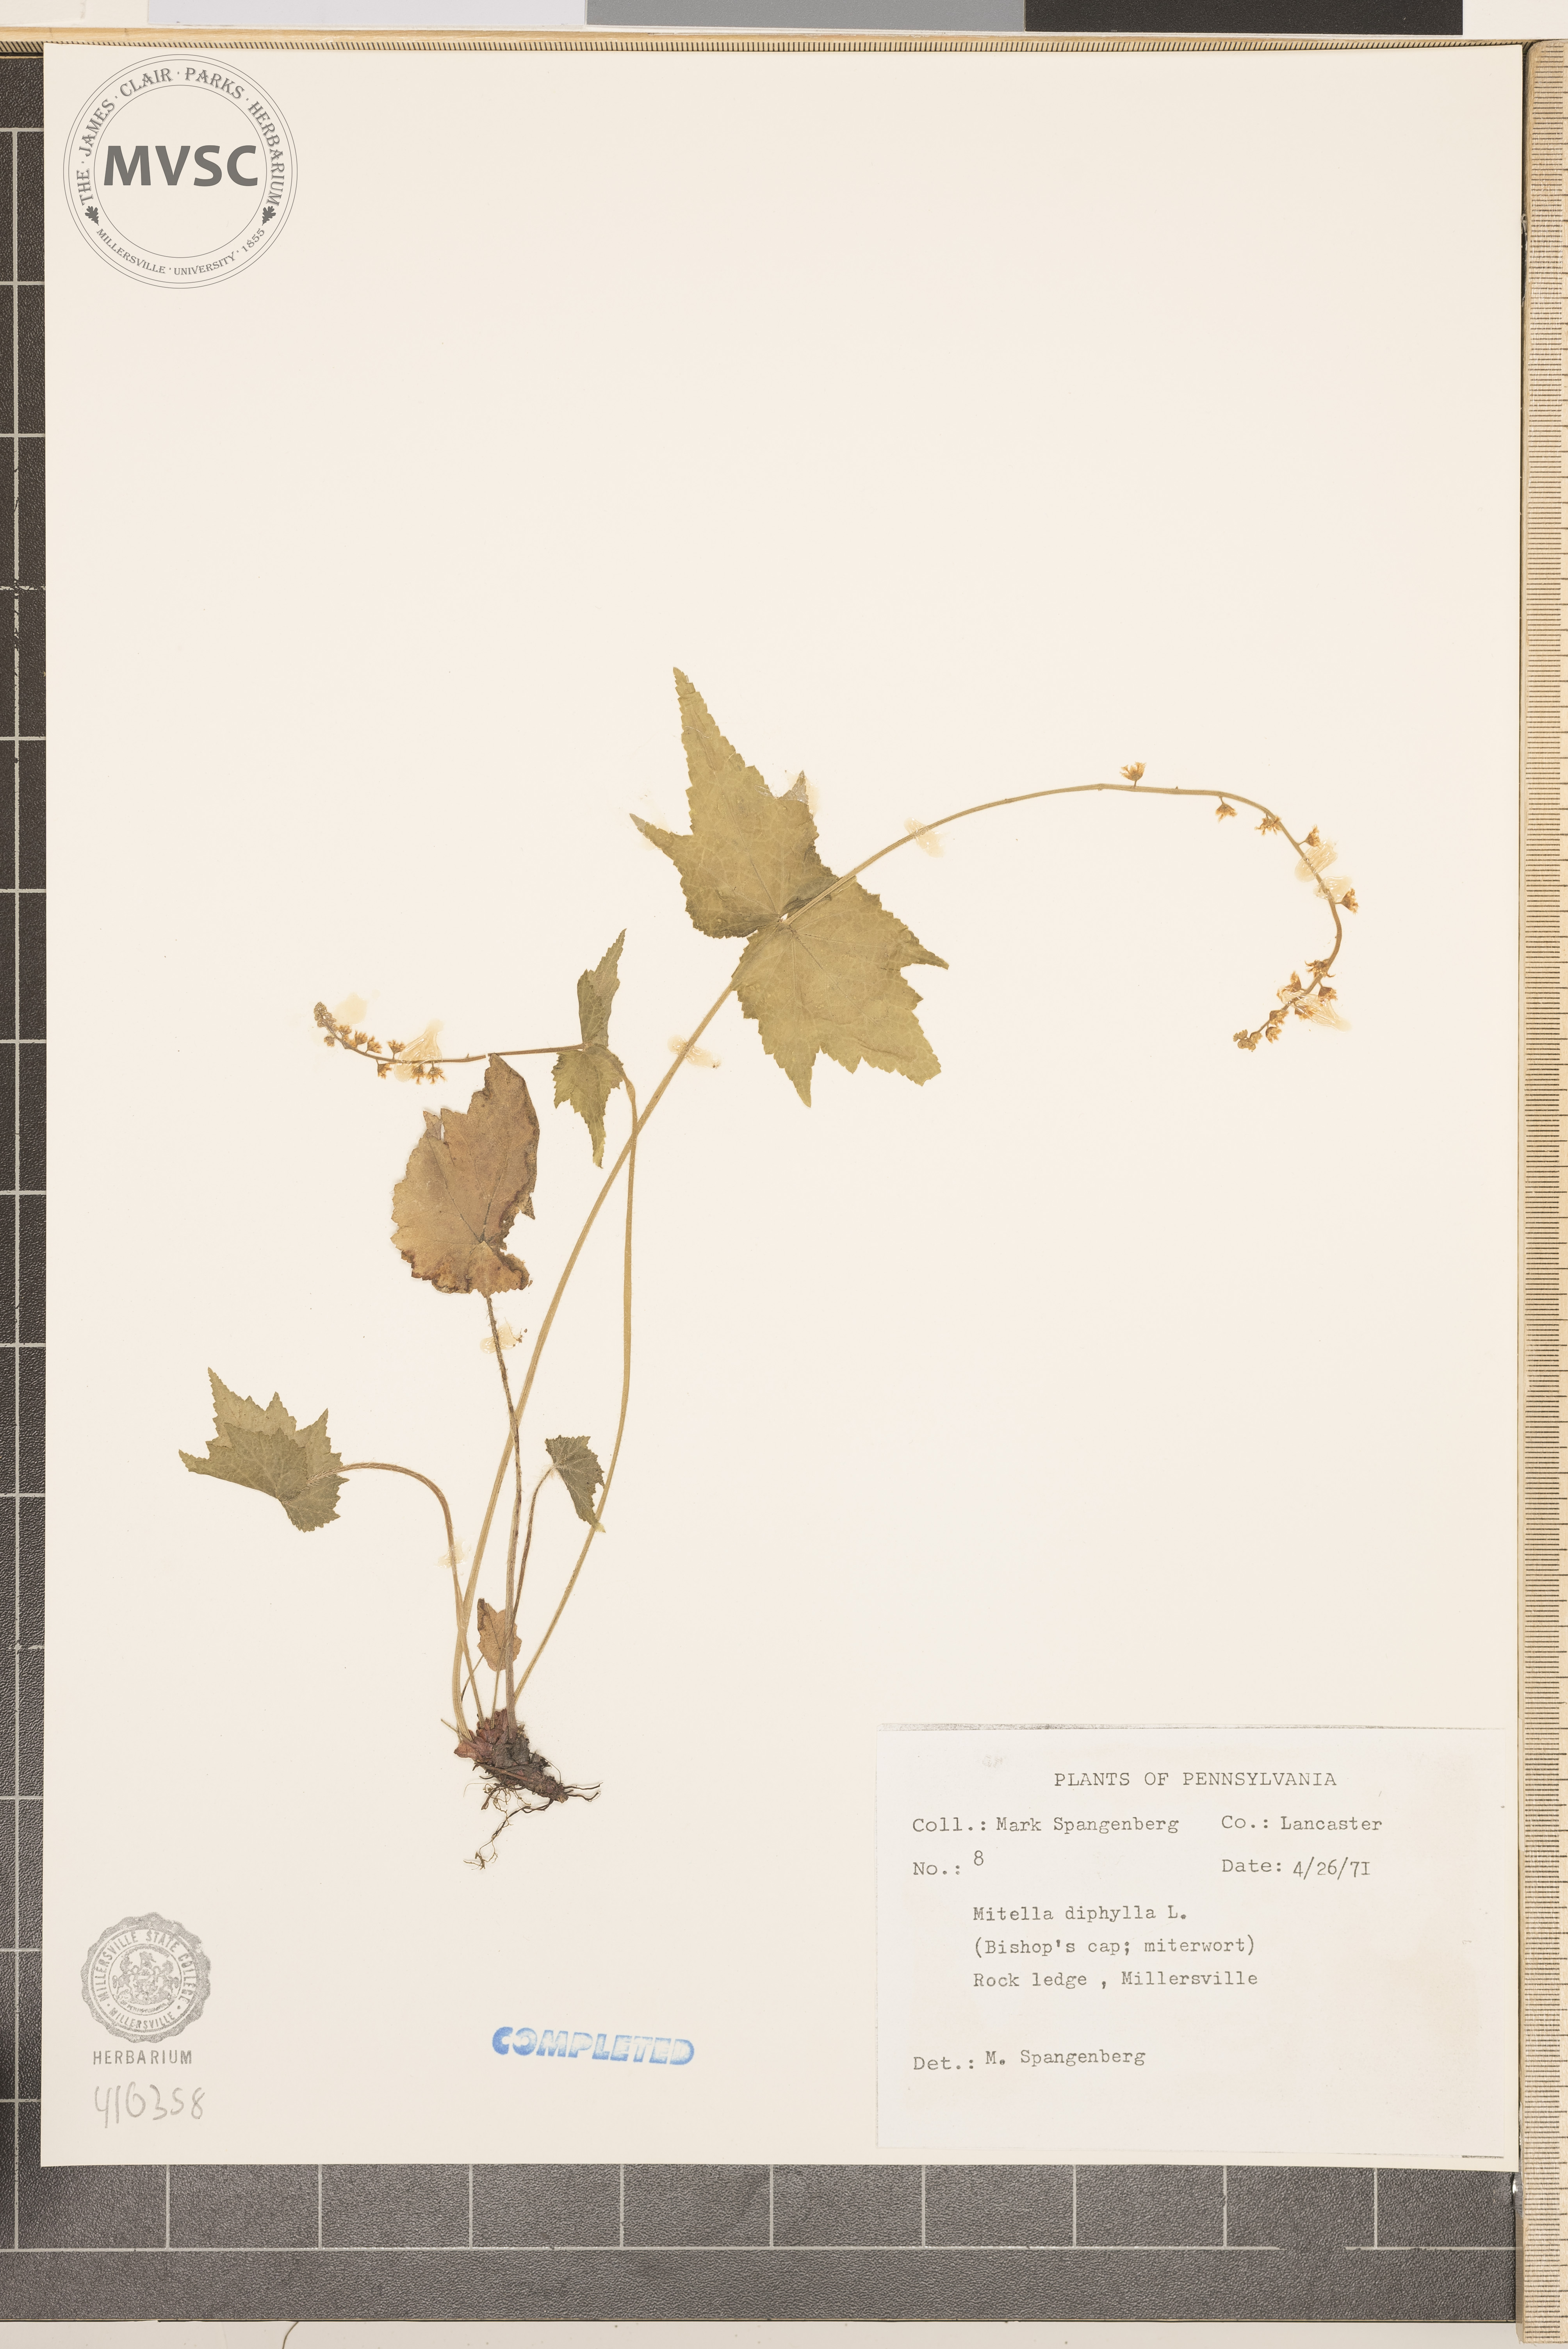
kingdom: Plantae
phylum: Tracheophyta
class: Magnoliopsida
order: Saxifragales
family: Saxifragaceae
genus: Mitella
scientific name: Mitella diphylla
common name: Coolwort
